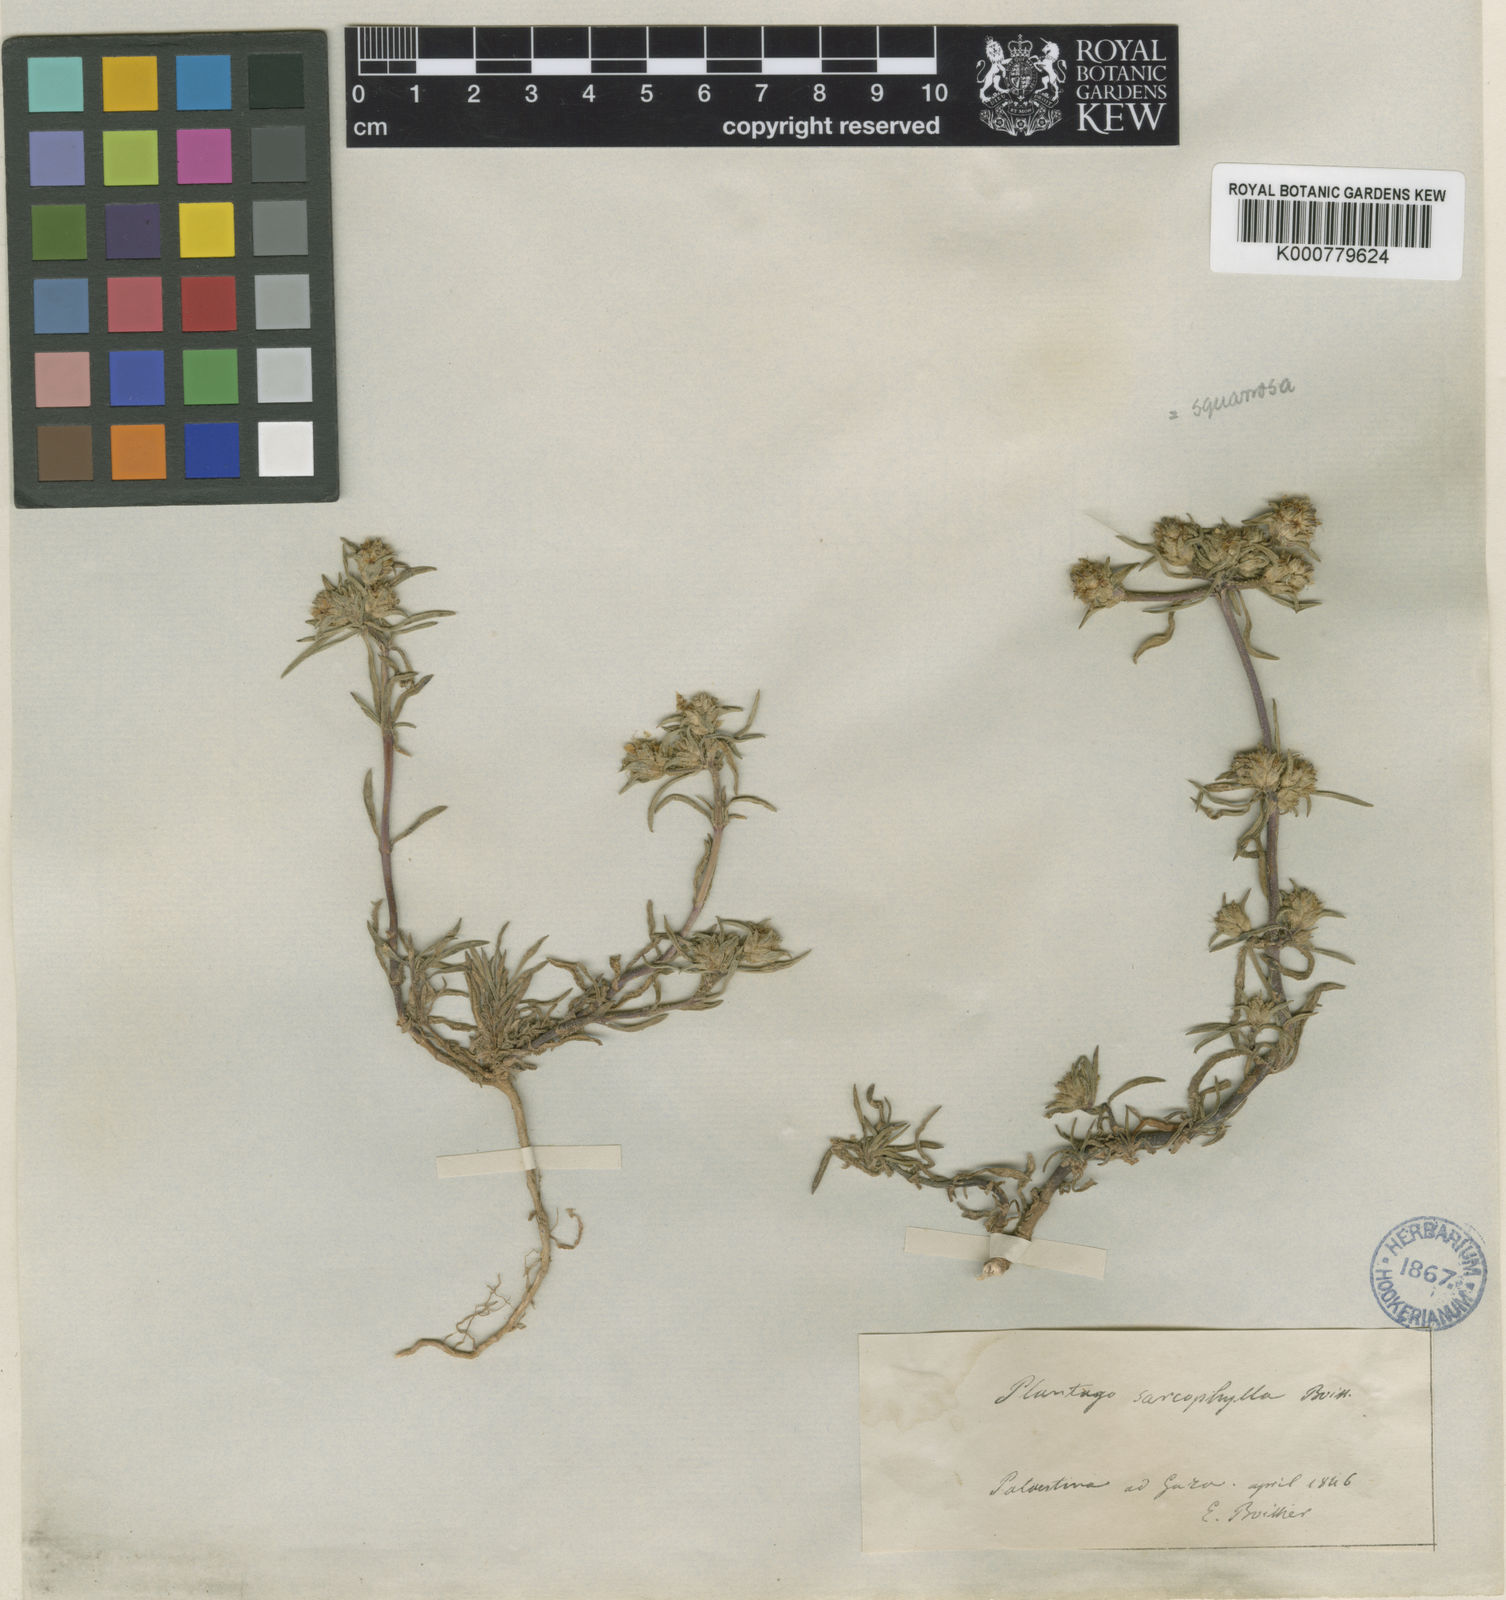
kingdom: Plantae
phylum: Tracheophyta
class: Magnoliopsida
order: Lamiales
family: Plantaginaceae
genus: Plantago
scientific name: Plantago squarrosa
